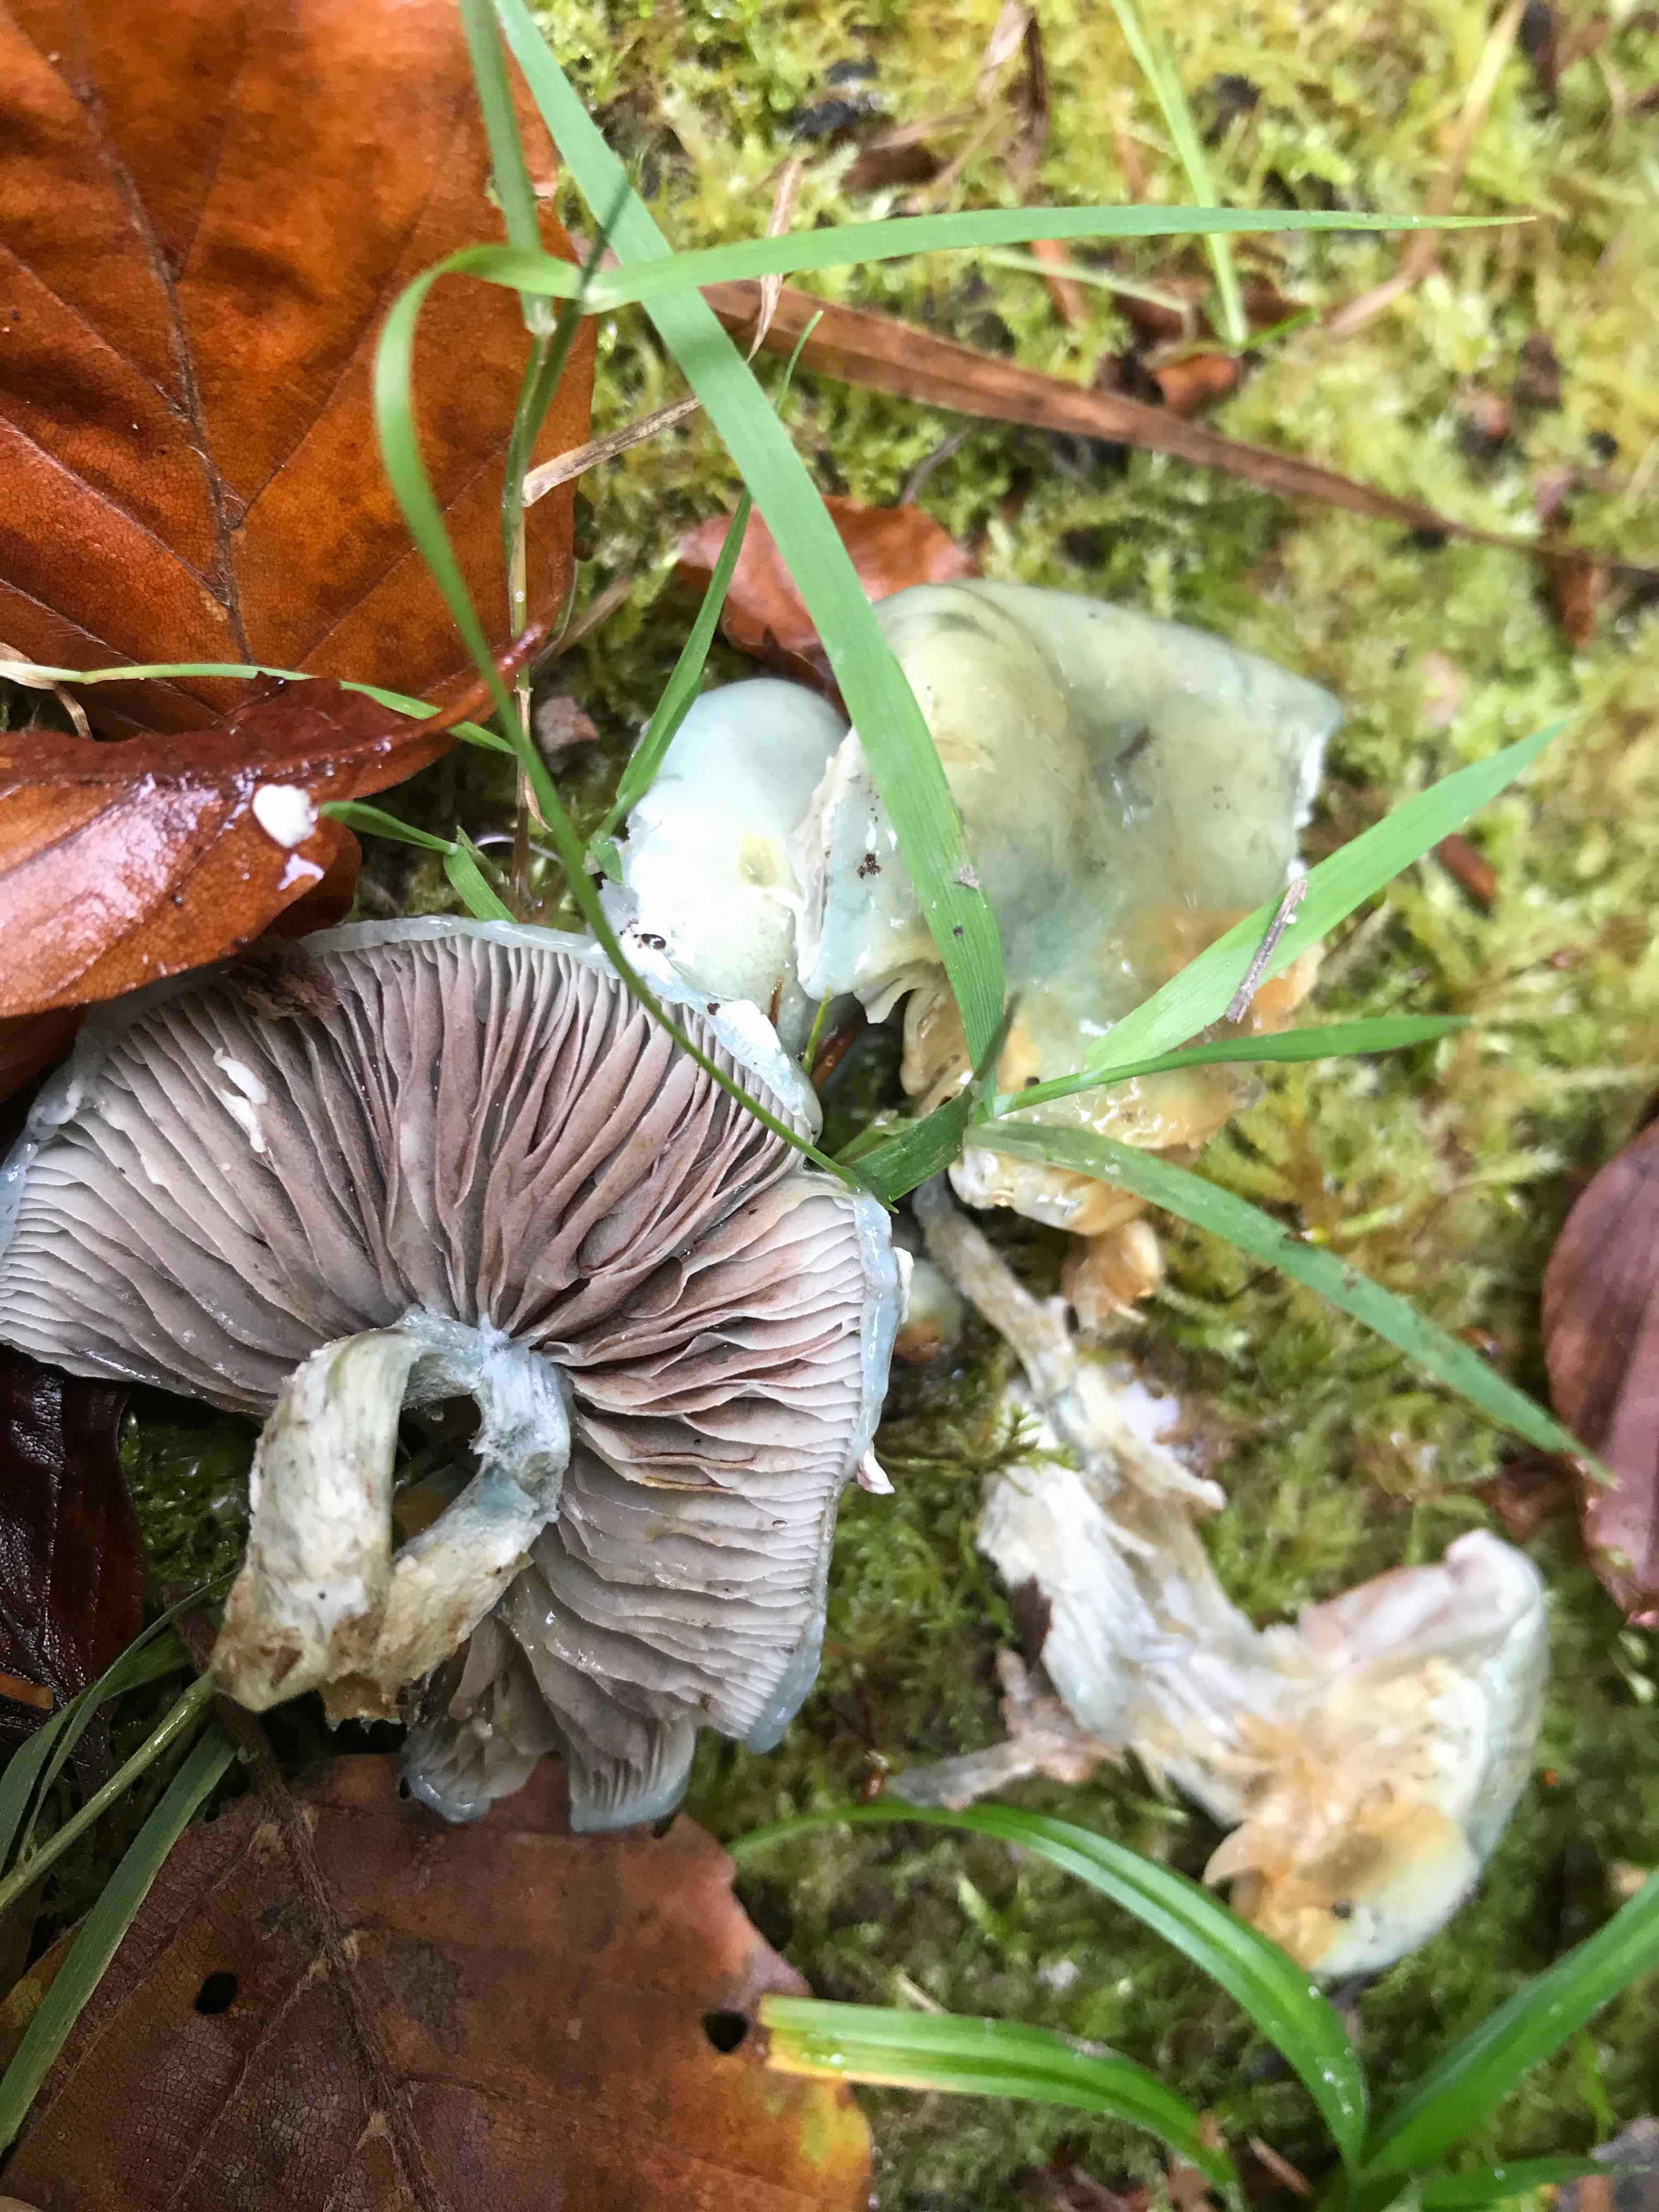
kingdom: Fungi
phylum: Basidiomycota
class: Agaricomycetes
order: Agaricales
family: Strophariaceae
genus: Stropharia
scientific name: Stropharia cyanea
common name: blågrøn bredblad
